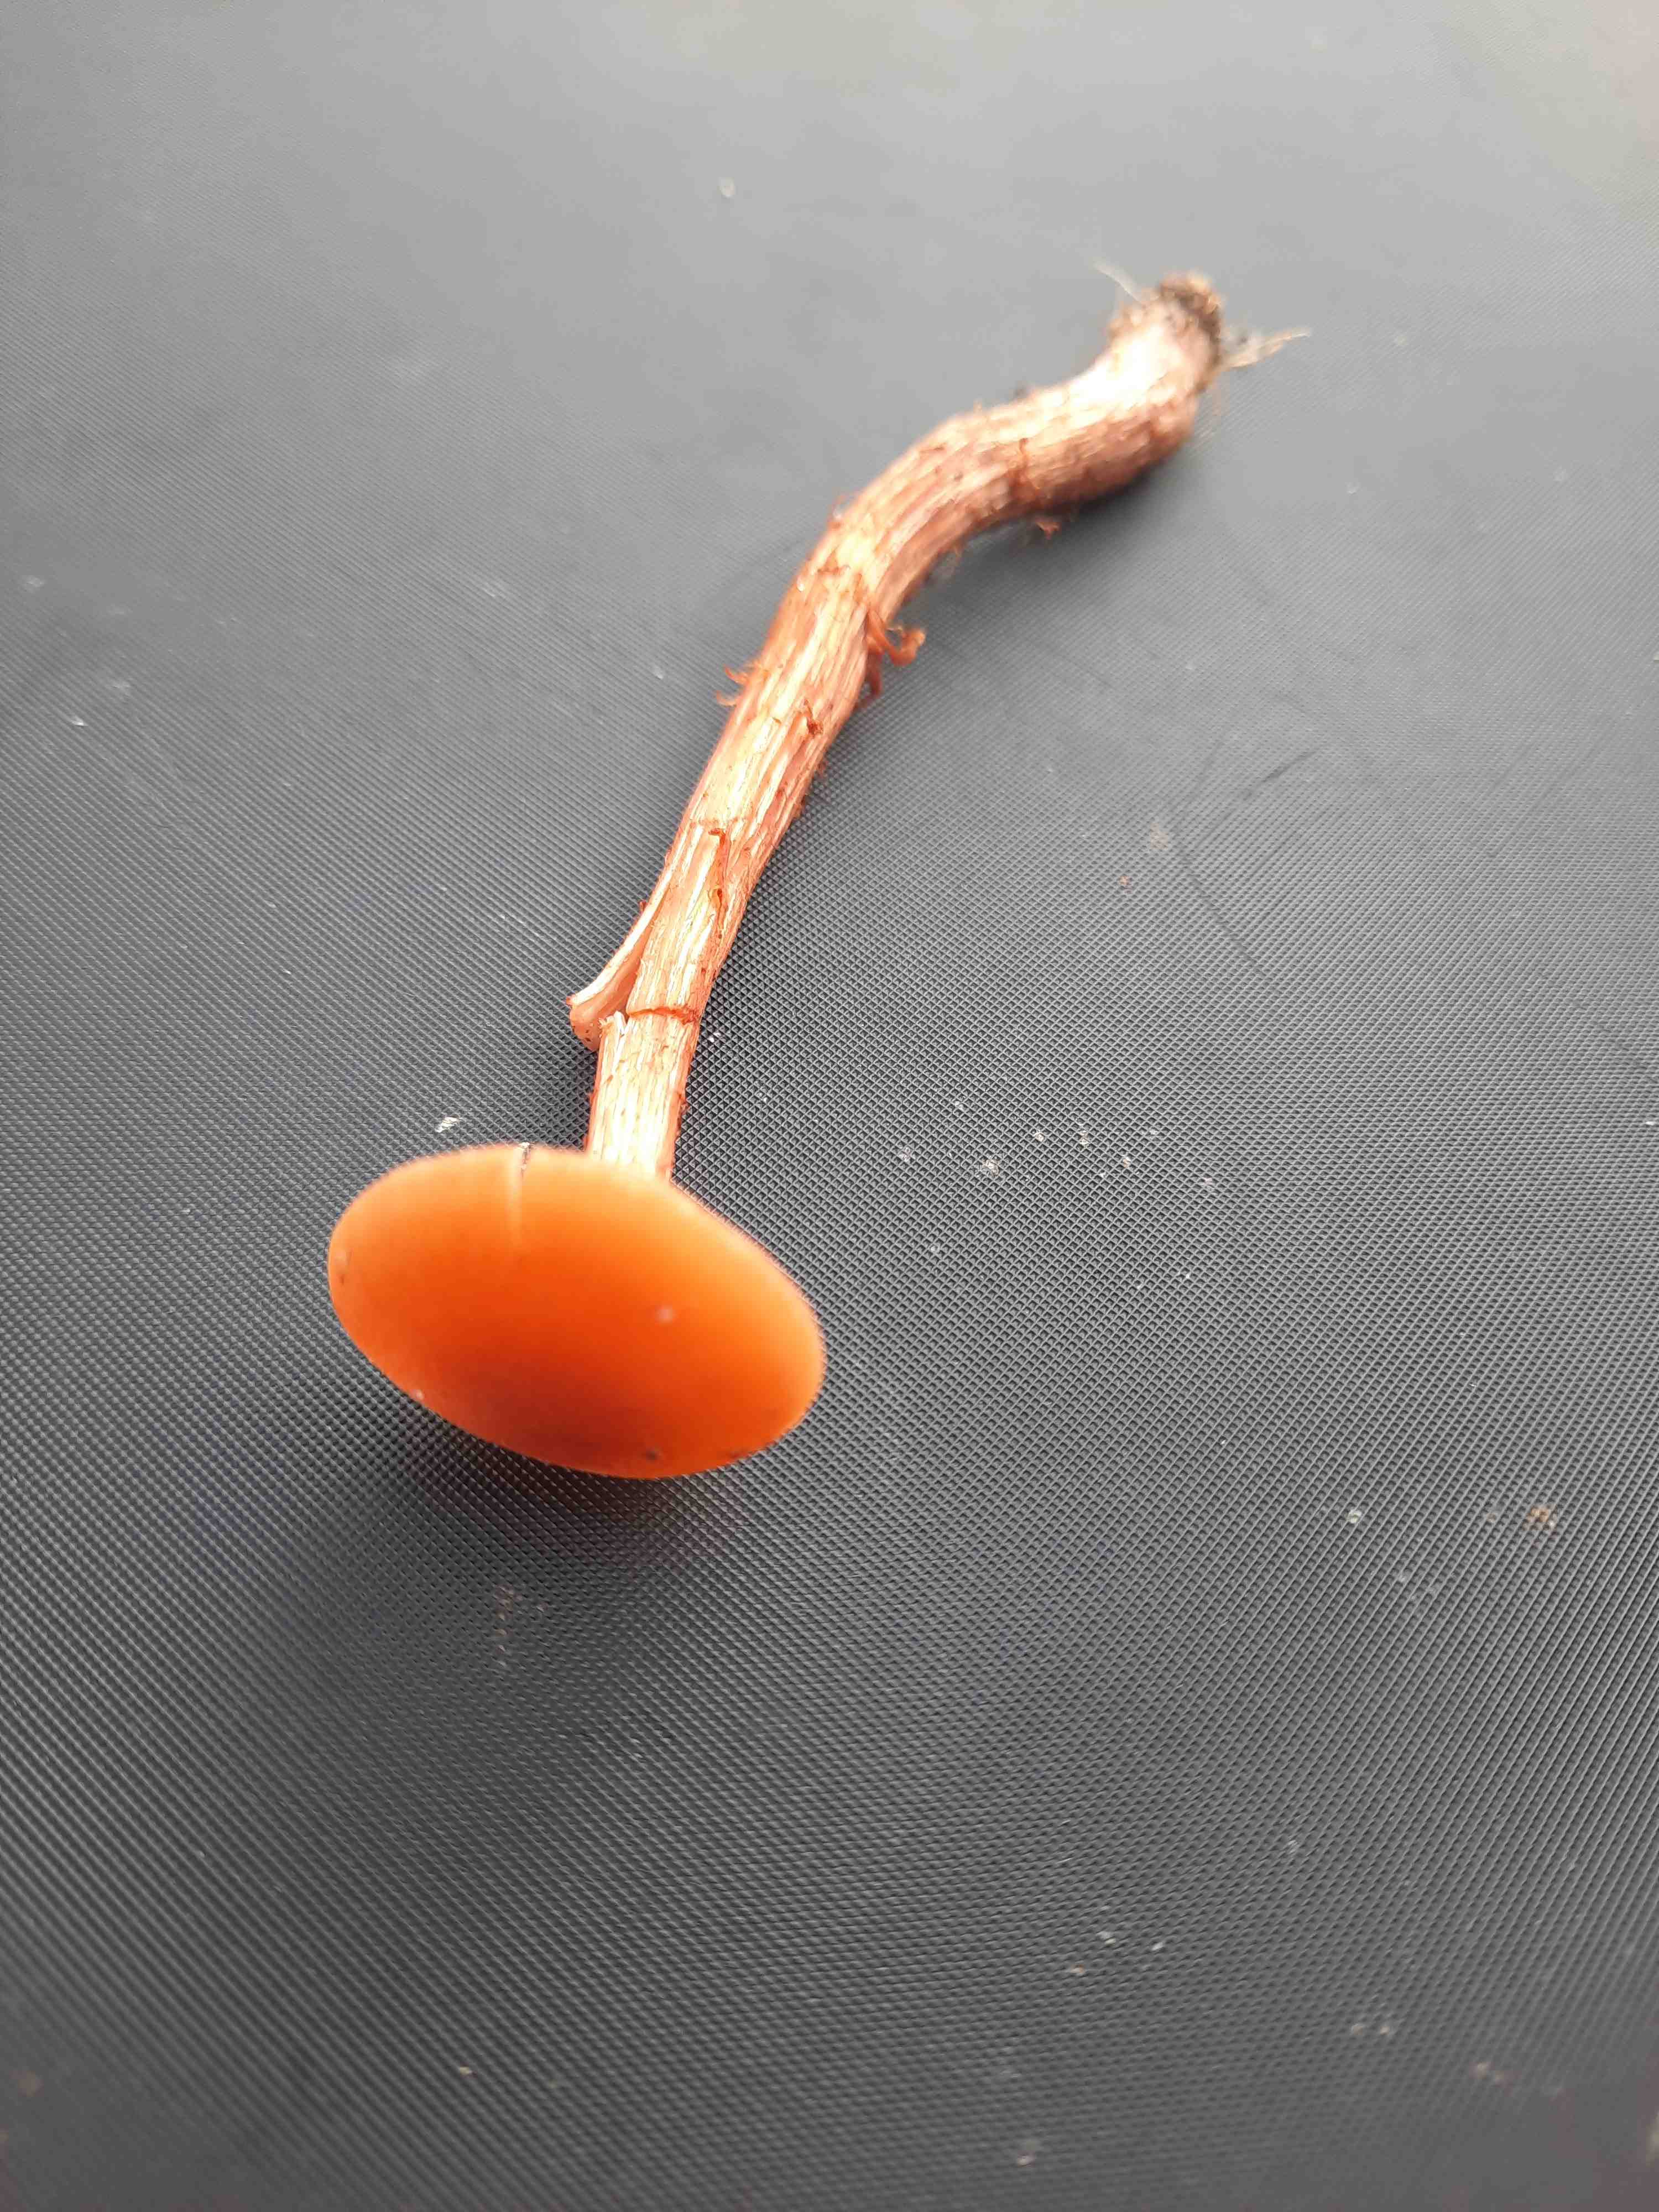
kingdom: Fungi
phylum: Basidiomycota
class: Agaricomycetes
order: Agaricales
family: Hydnangiaceae
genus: Laccaria
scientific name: Laccaria laccata
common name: rød ametysthat
